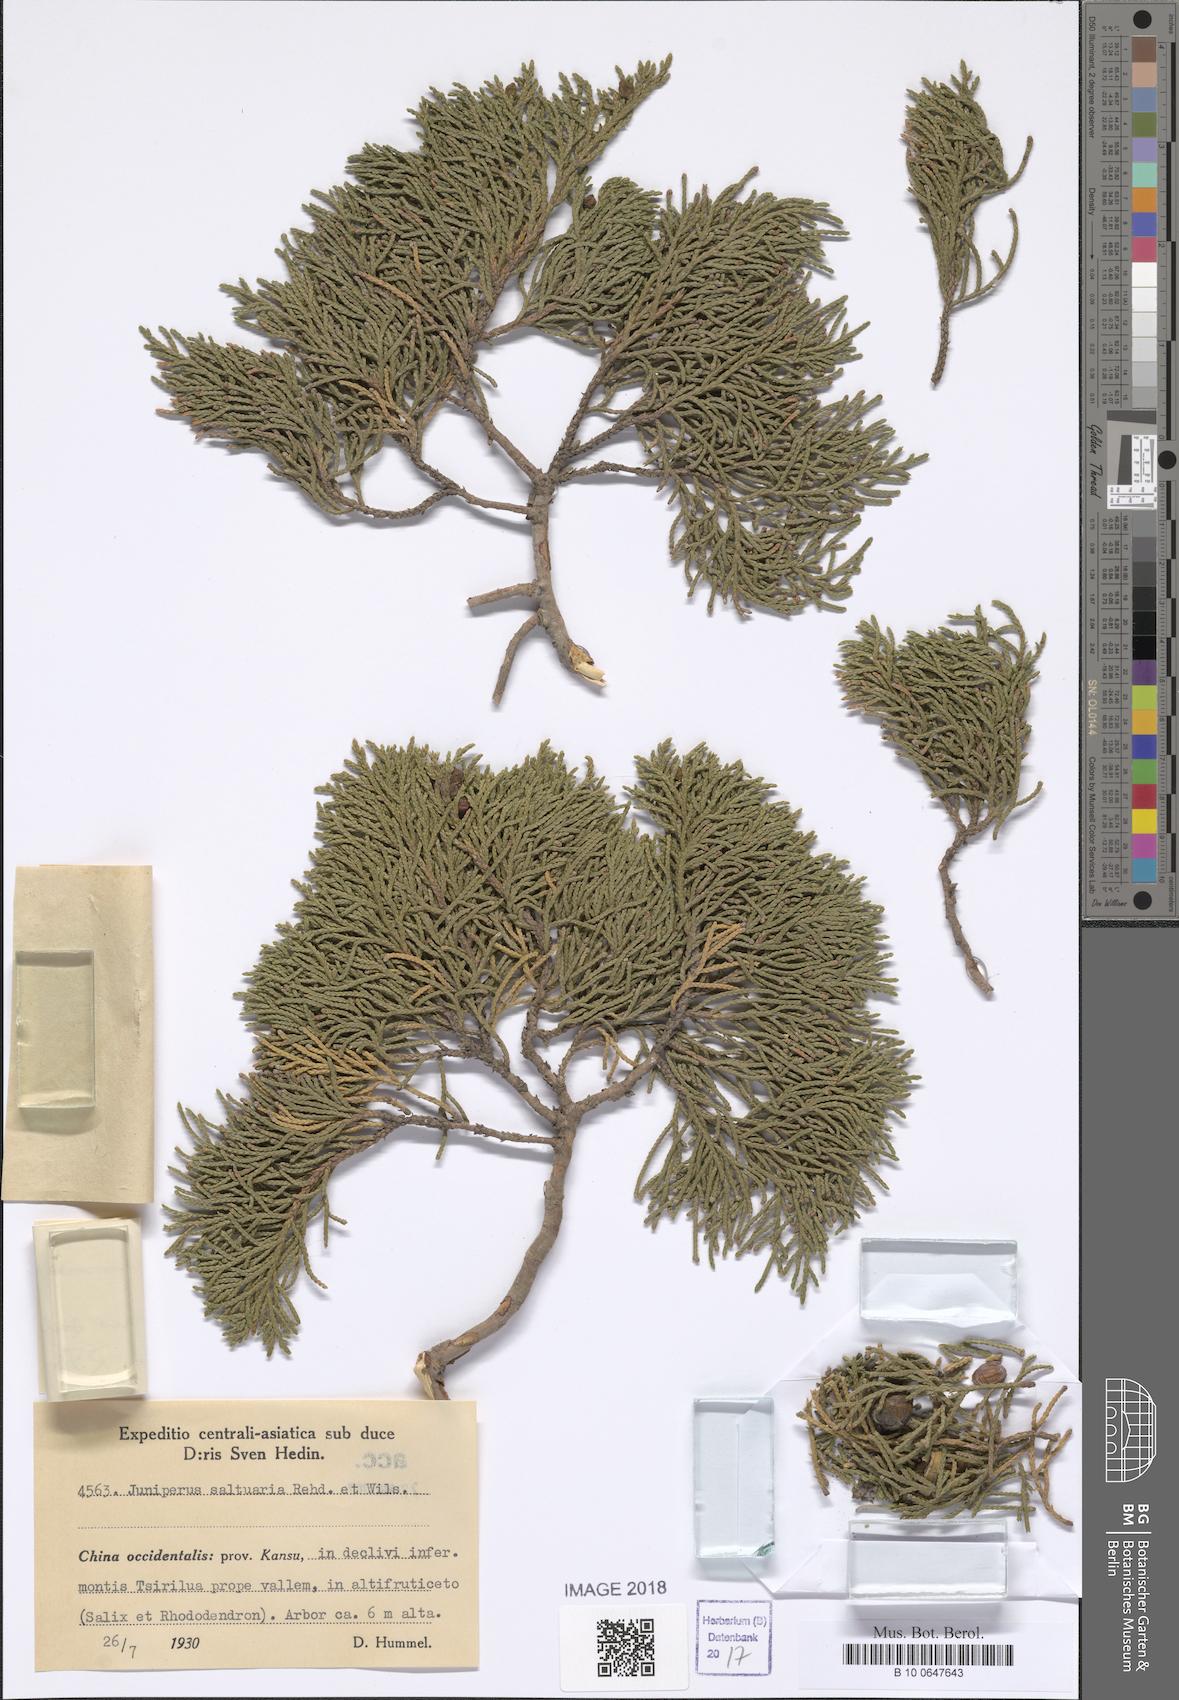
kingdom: Plantae
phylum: Tracheophyta
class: Pinopsida
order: Pinales
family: Cupressaceae
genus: Juniperus
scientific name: Juniperus saltuaria
